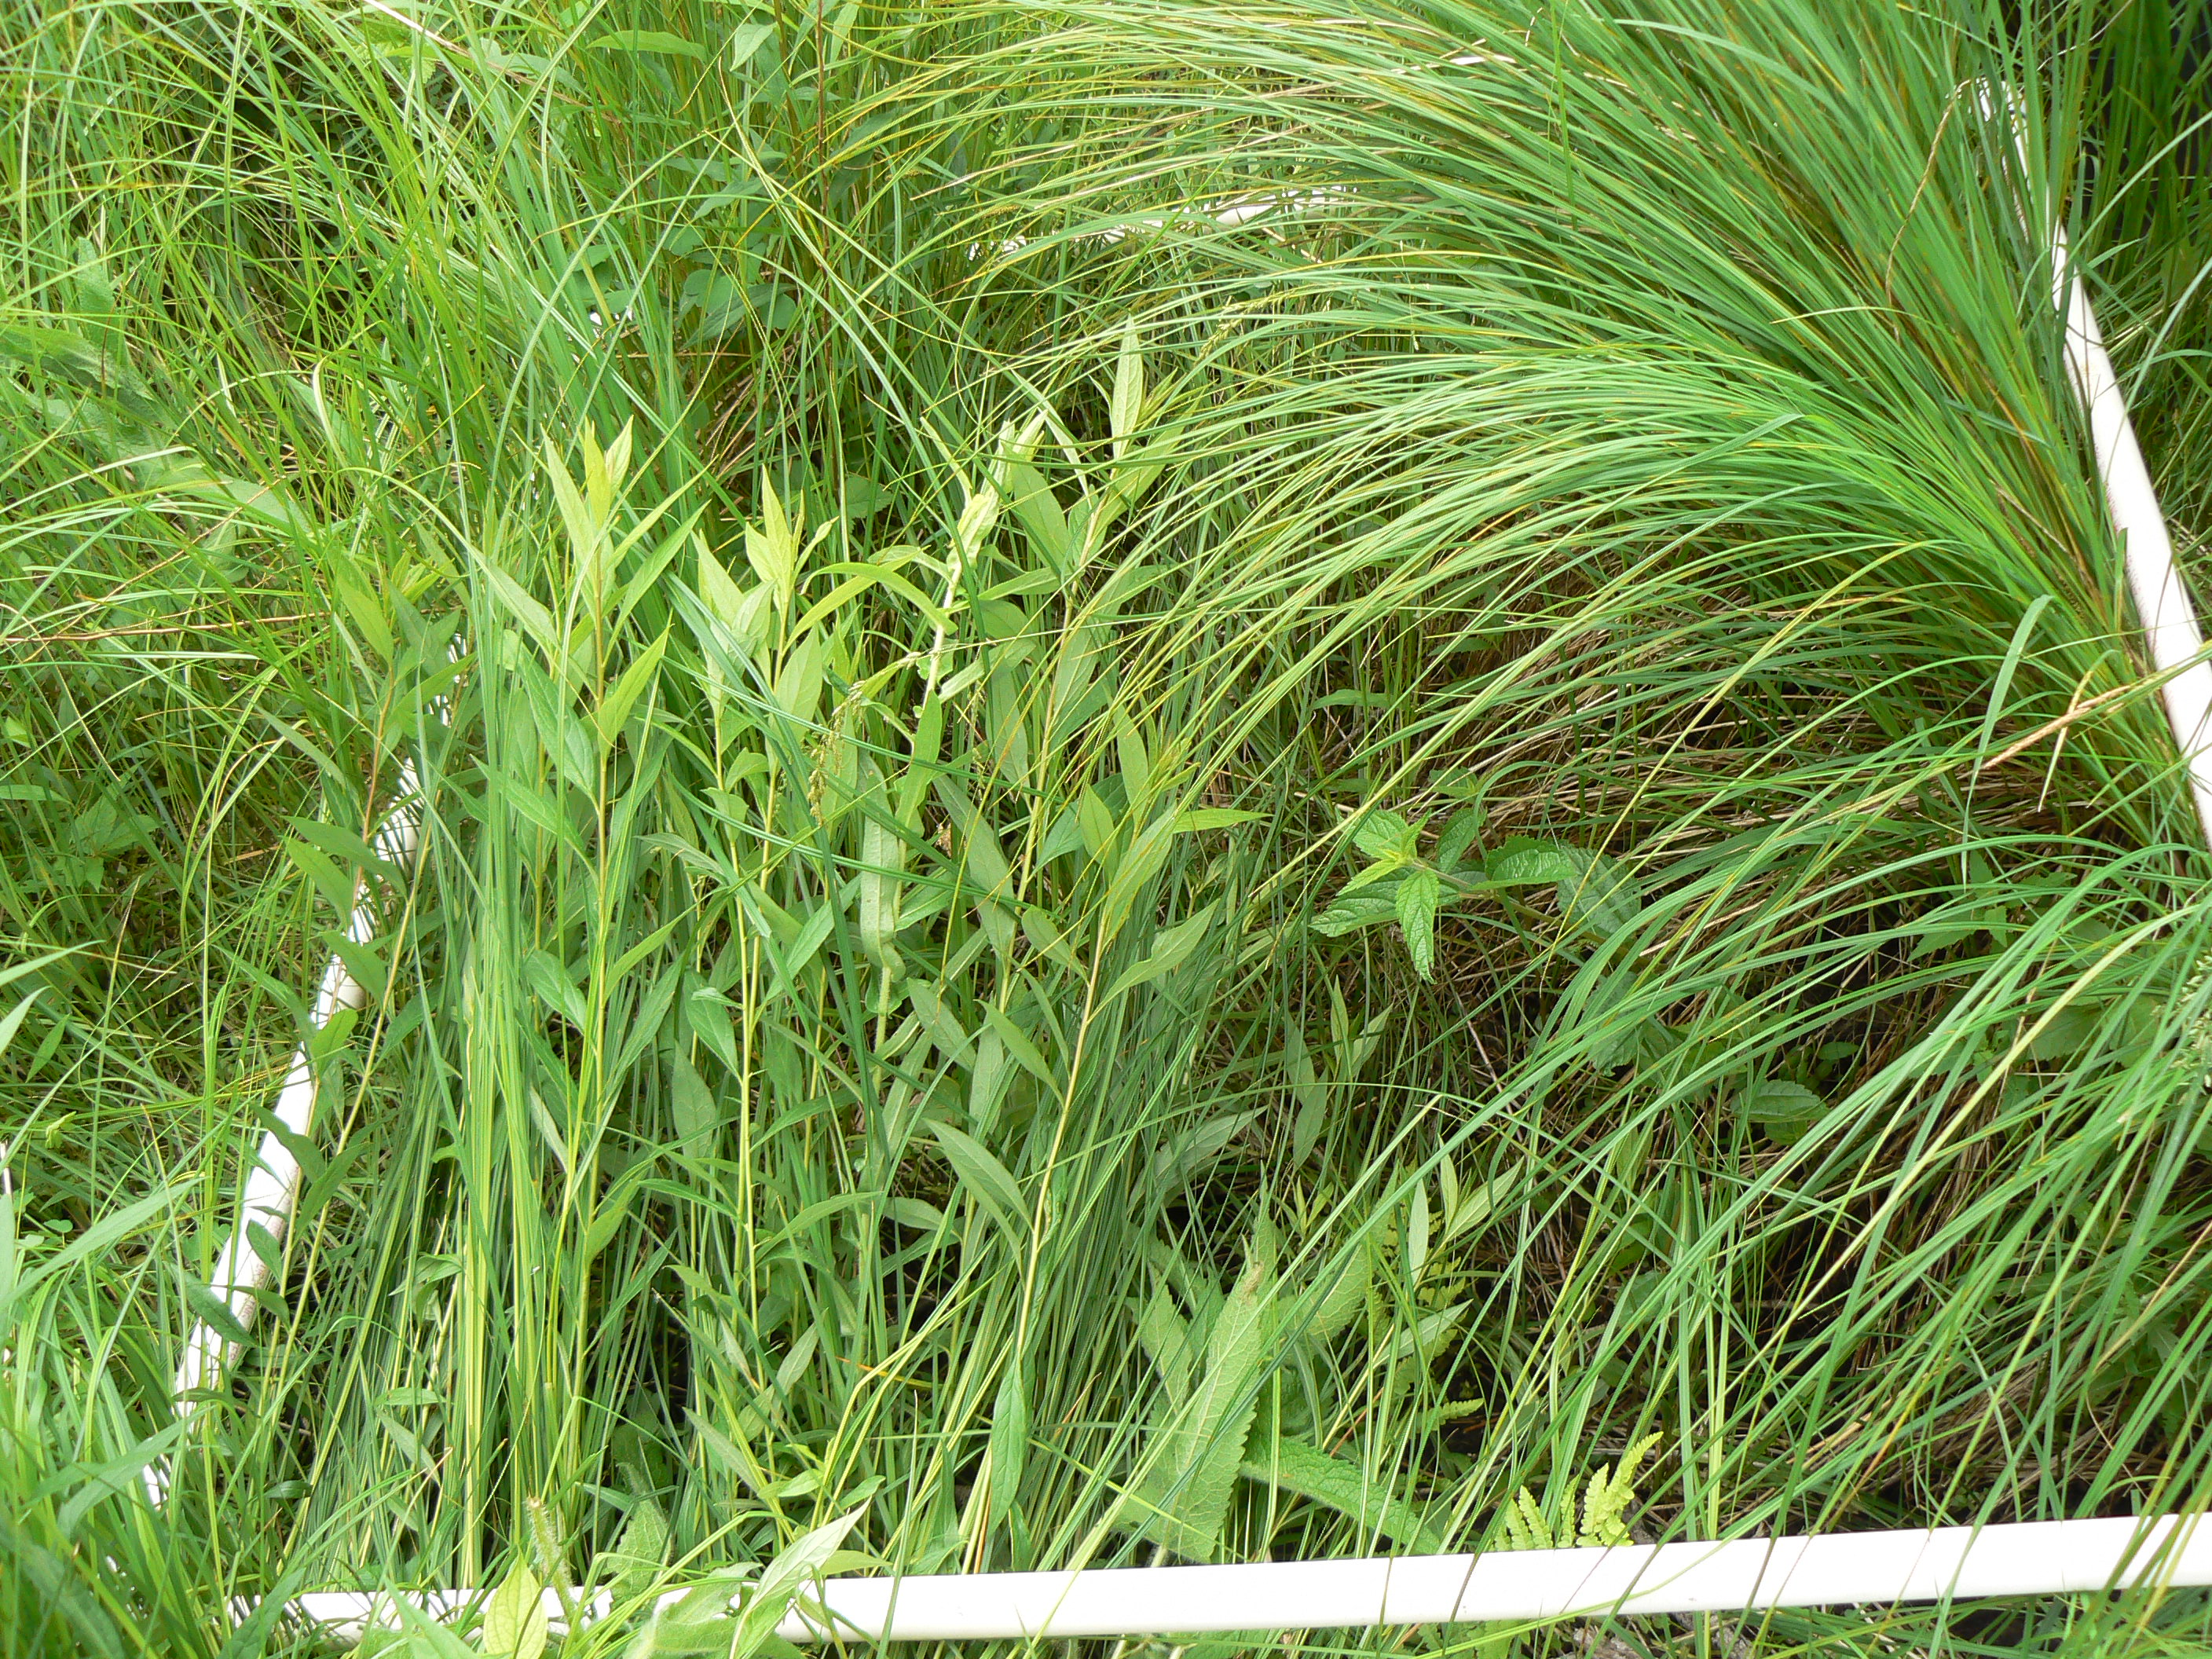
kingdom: Plantae
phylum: Tracheophyta
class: Magnoliopsida
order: Rosales
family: Rosaceae
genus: Rubus
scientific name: Rubus pubescens
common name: Dwarf raspberry
